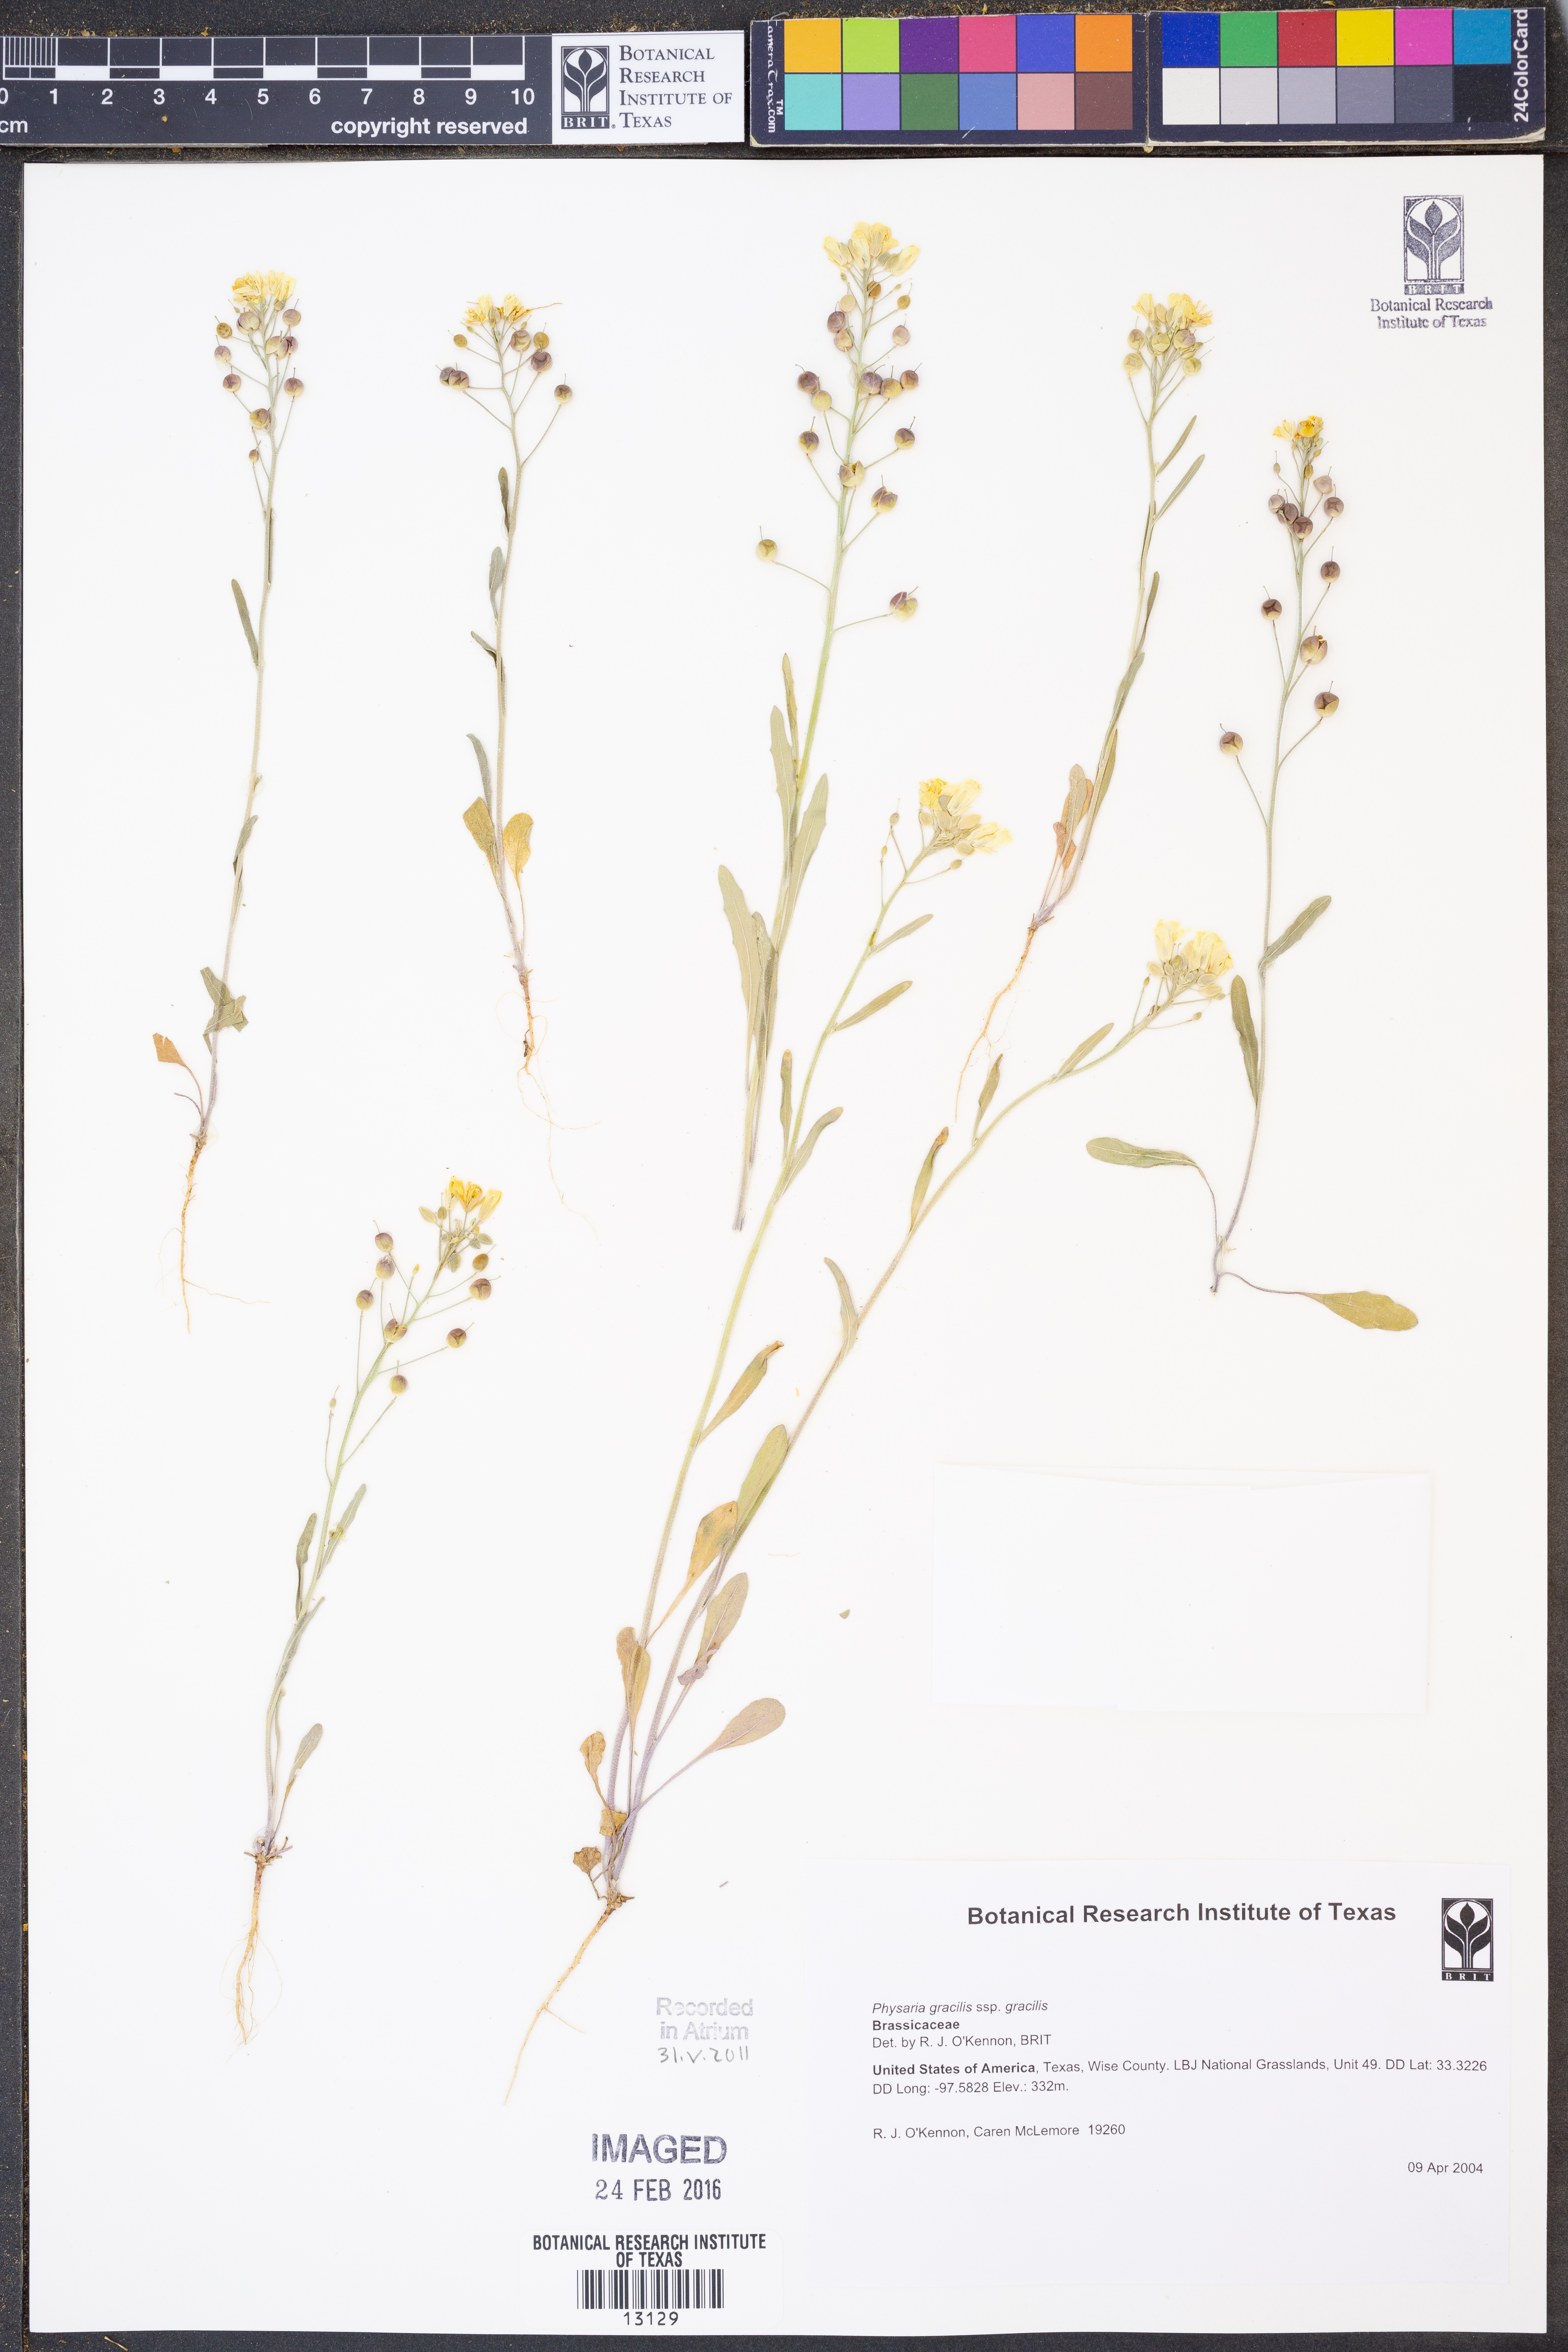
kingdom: Plantae
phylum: Tracheophyta
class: Magnoliopsida
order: Brassicales
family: Brassicaceae
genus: Physaria
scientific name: Physaria gracilis
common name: Spreading bladderpod
